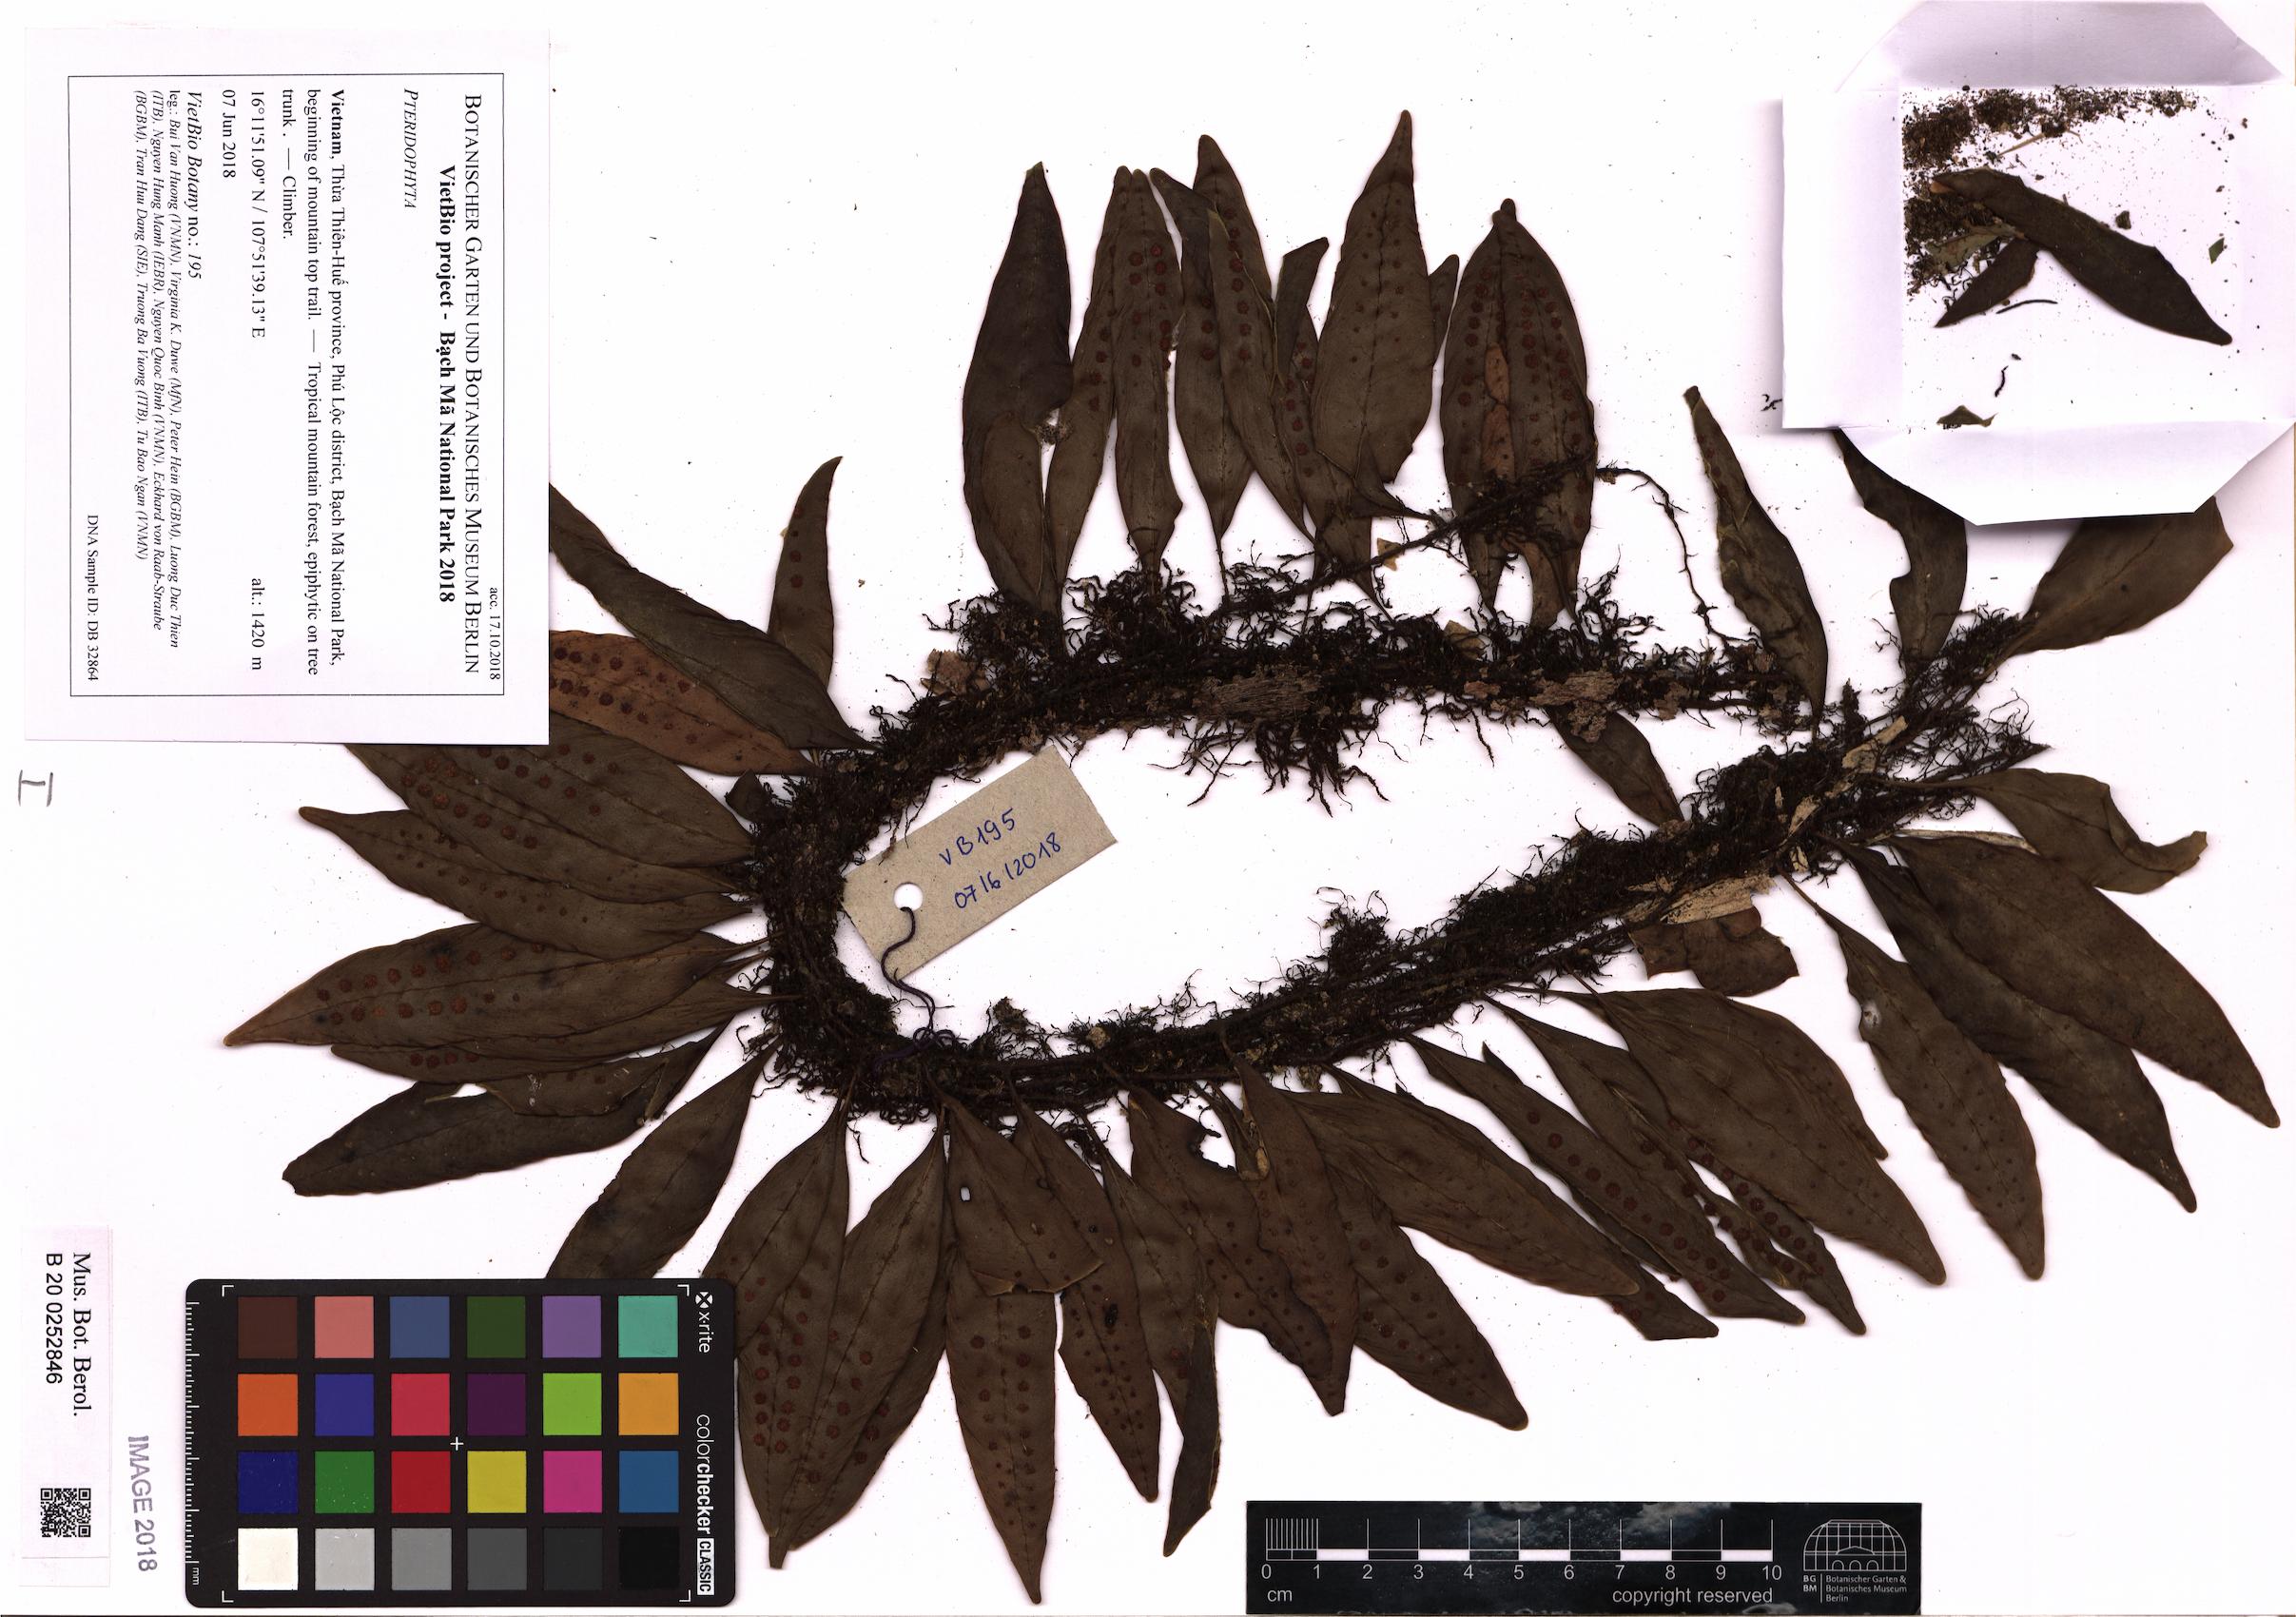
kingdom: Plantae
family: Pteridophyta
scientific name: Pteridophyta
